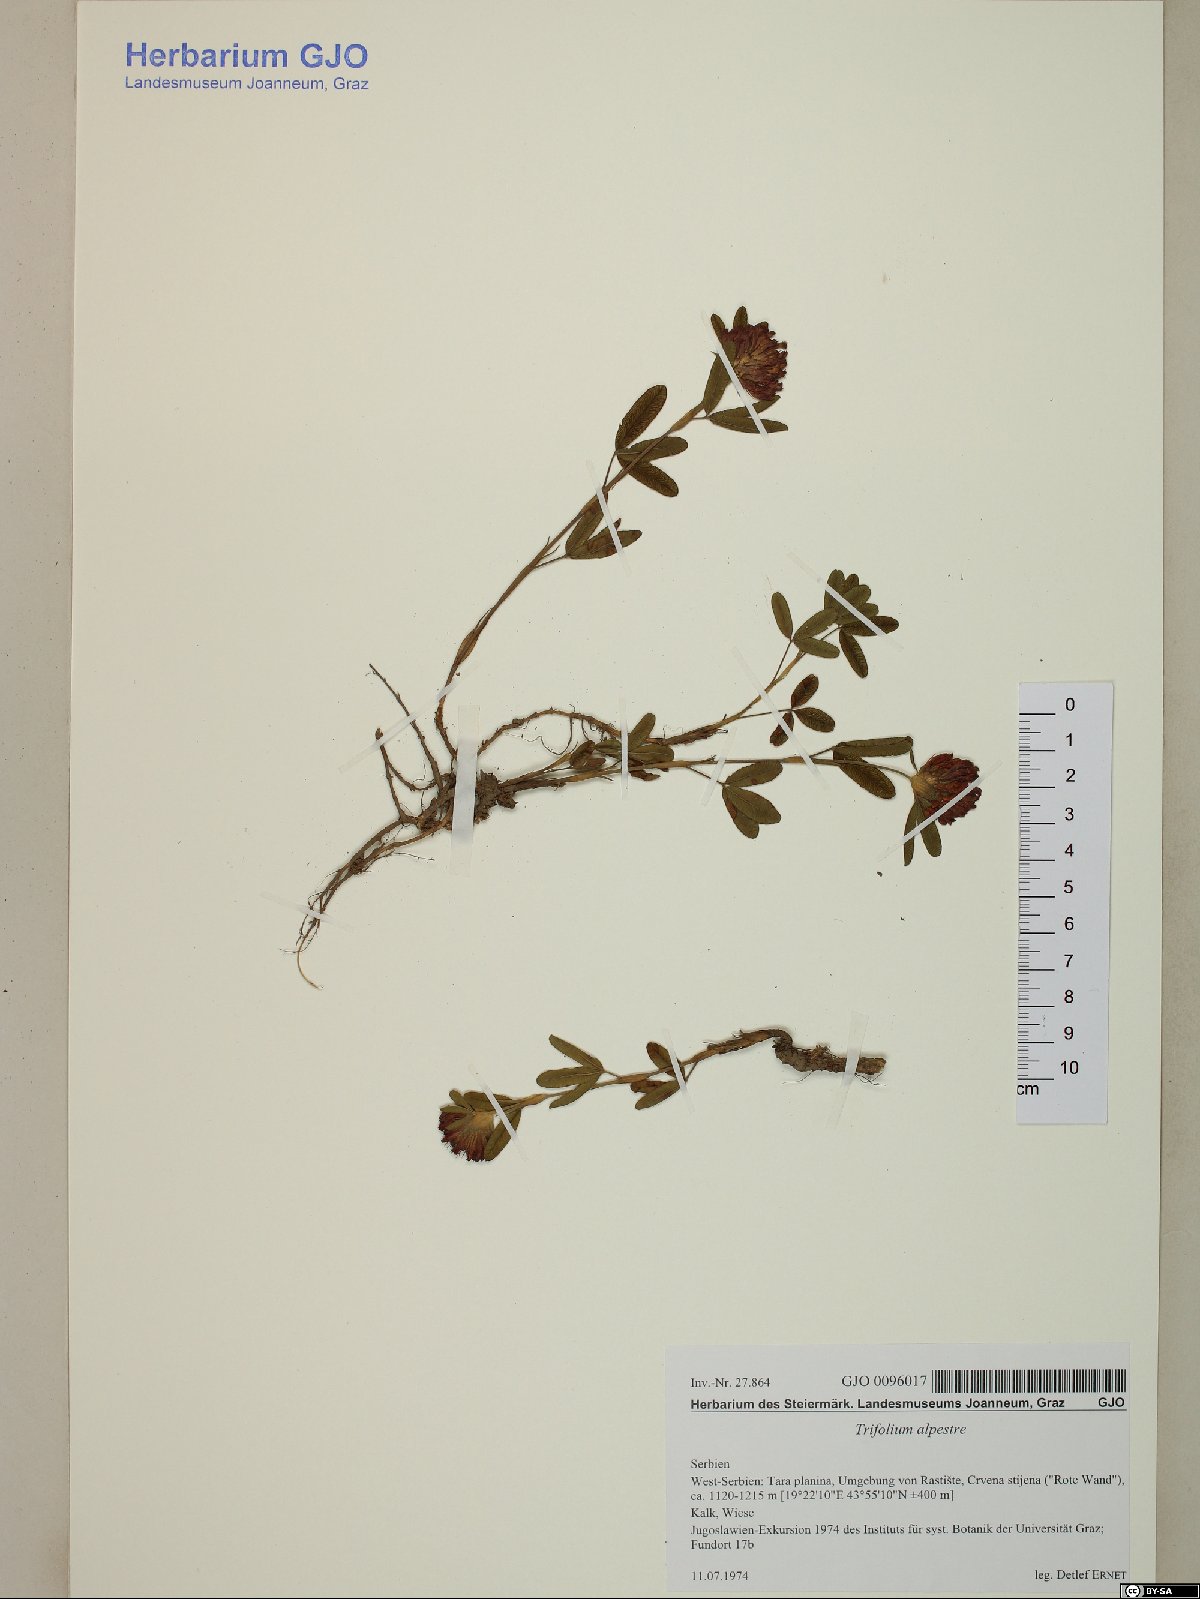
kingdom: Plantae
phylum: Tracheophyta
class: Magnoliopsida
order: Fabales
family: Fabaceae
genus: Trifolium
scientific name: Trifolium alpestre
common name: Owl-head clover
